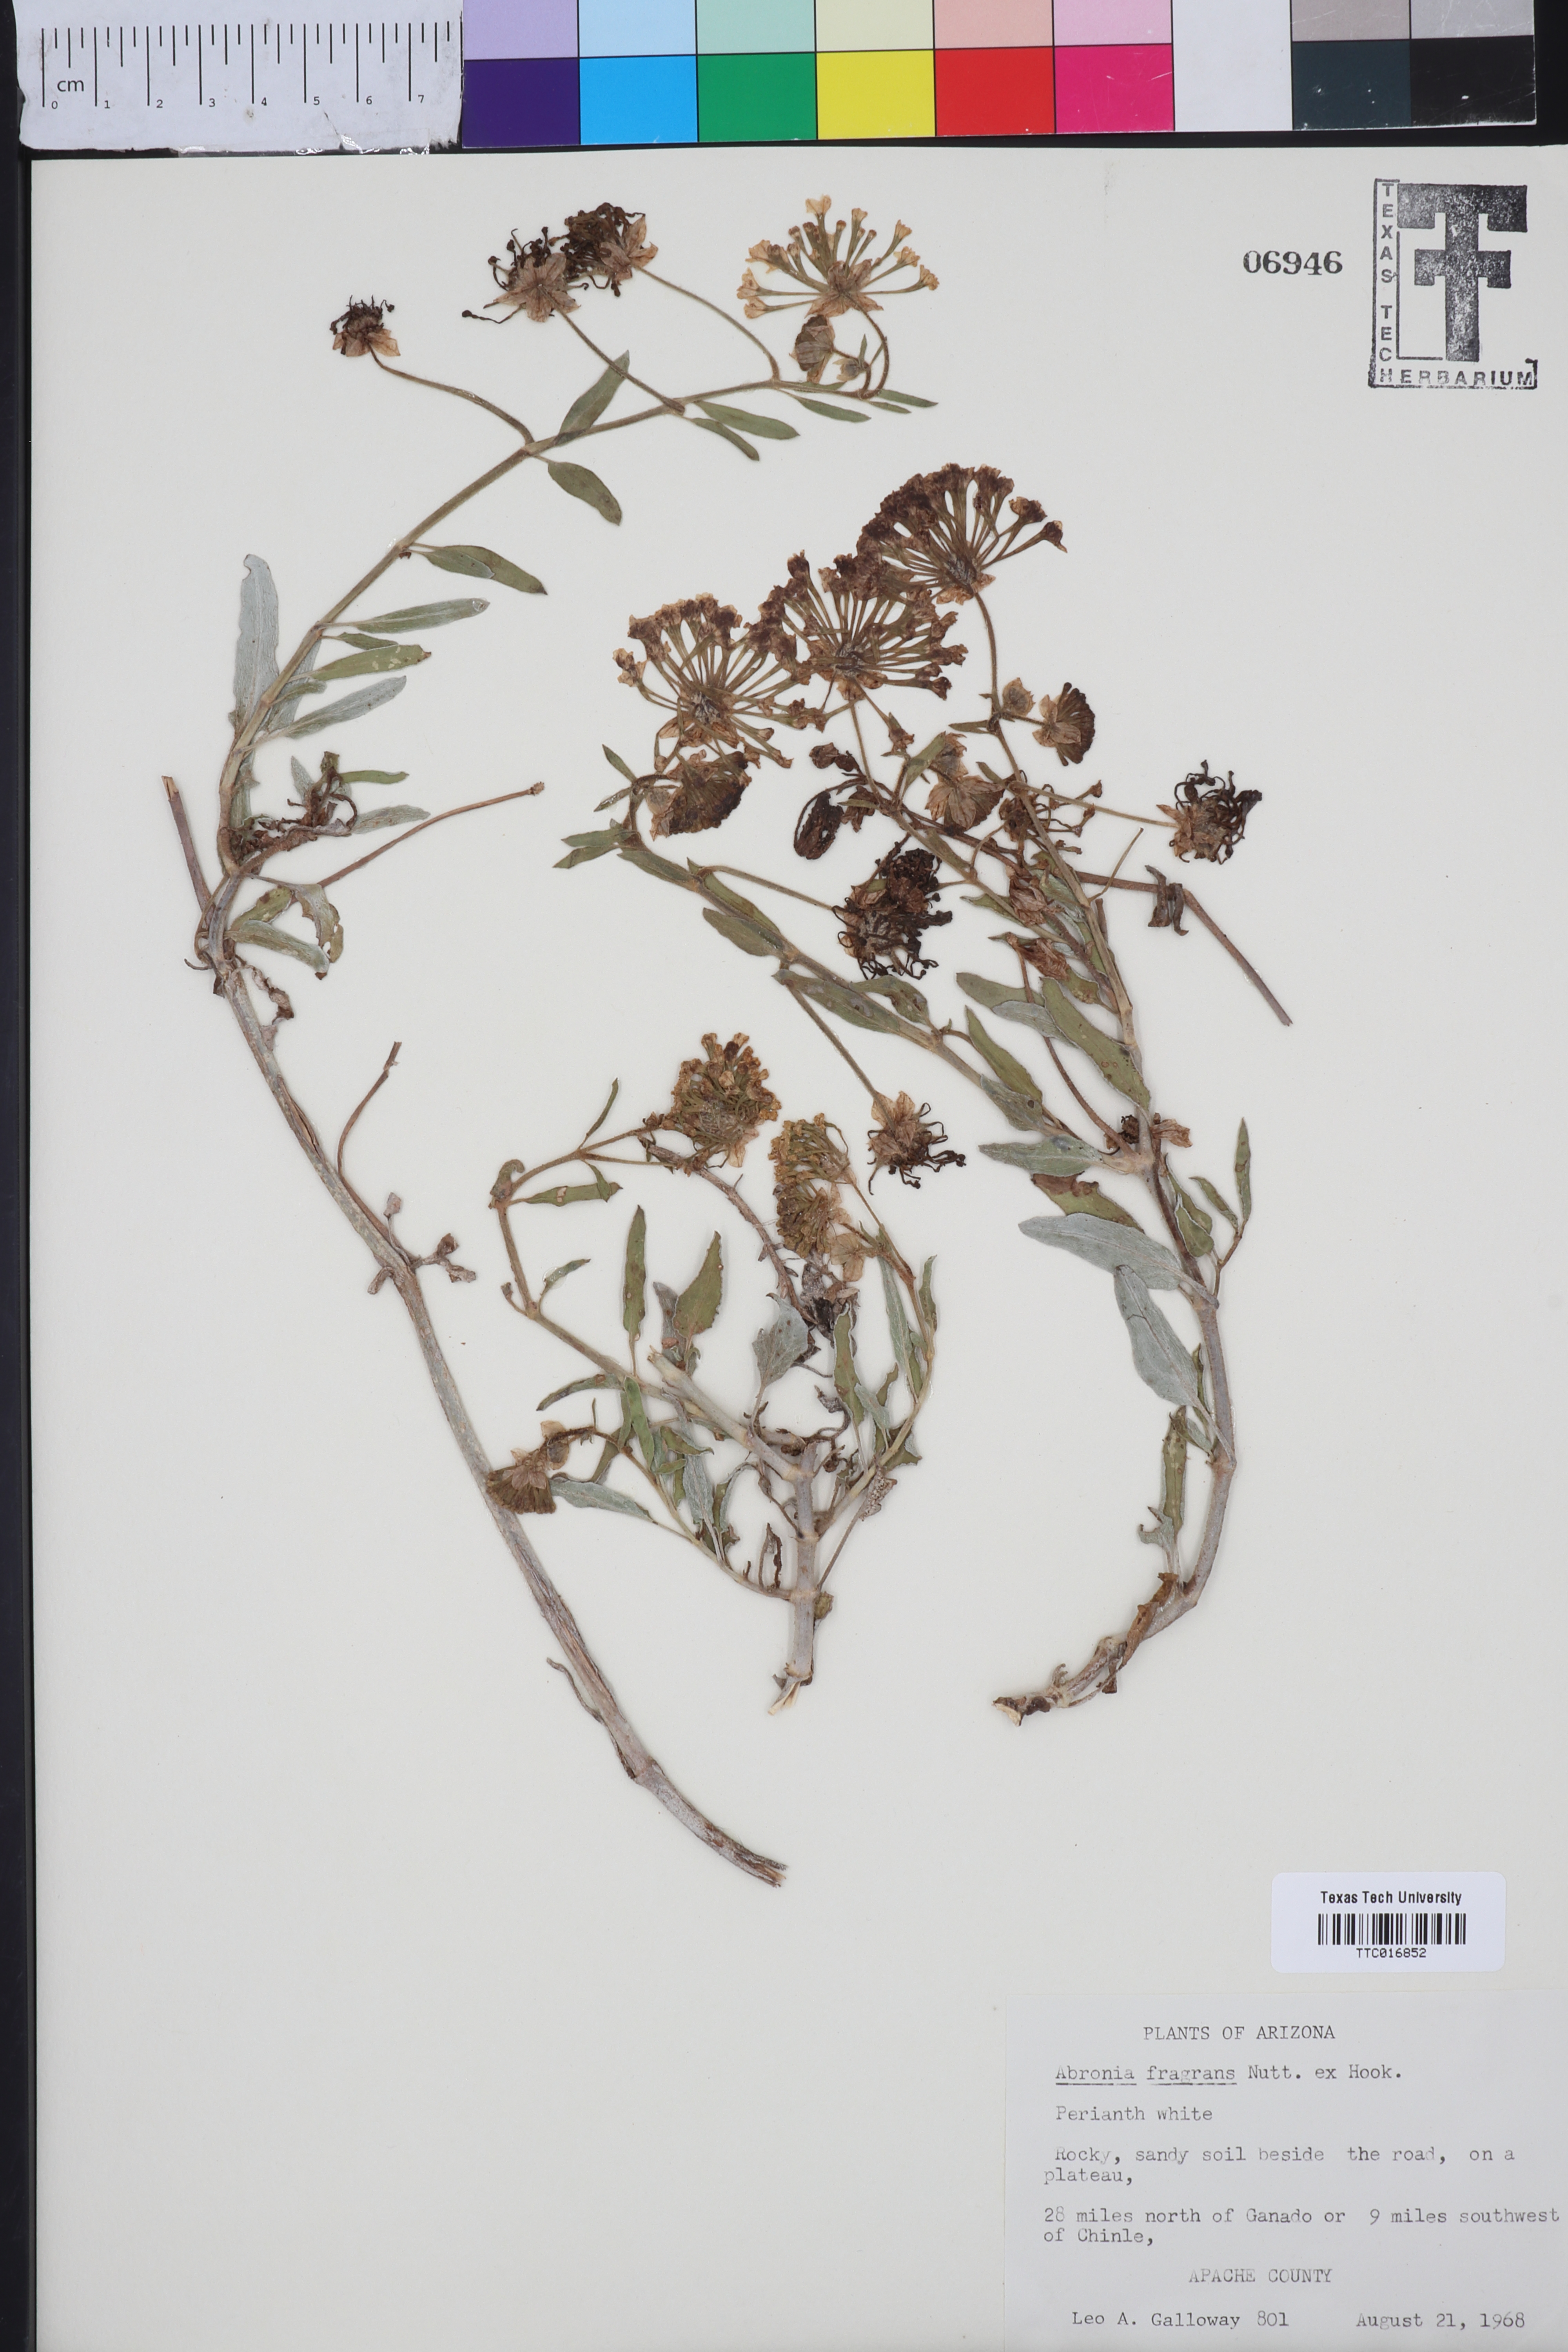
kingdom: Plantae
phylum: Tracheophyta
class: Magnoliopsida
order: Caryophyllales
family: Nyctaginaceae
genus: Abronia
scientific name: Abronia fragrans
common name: Fragrant sand-verbena
